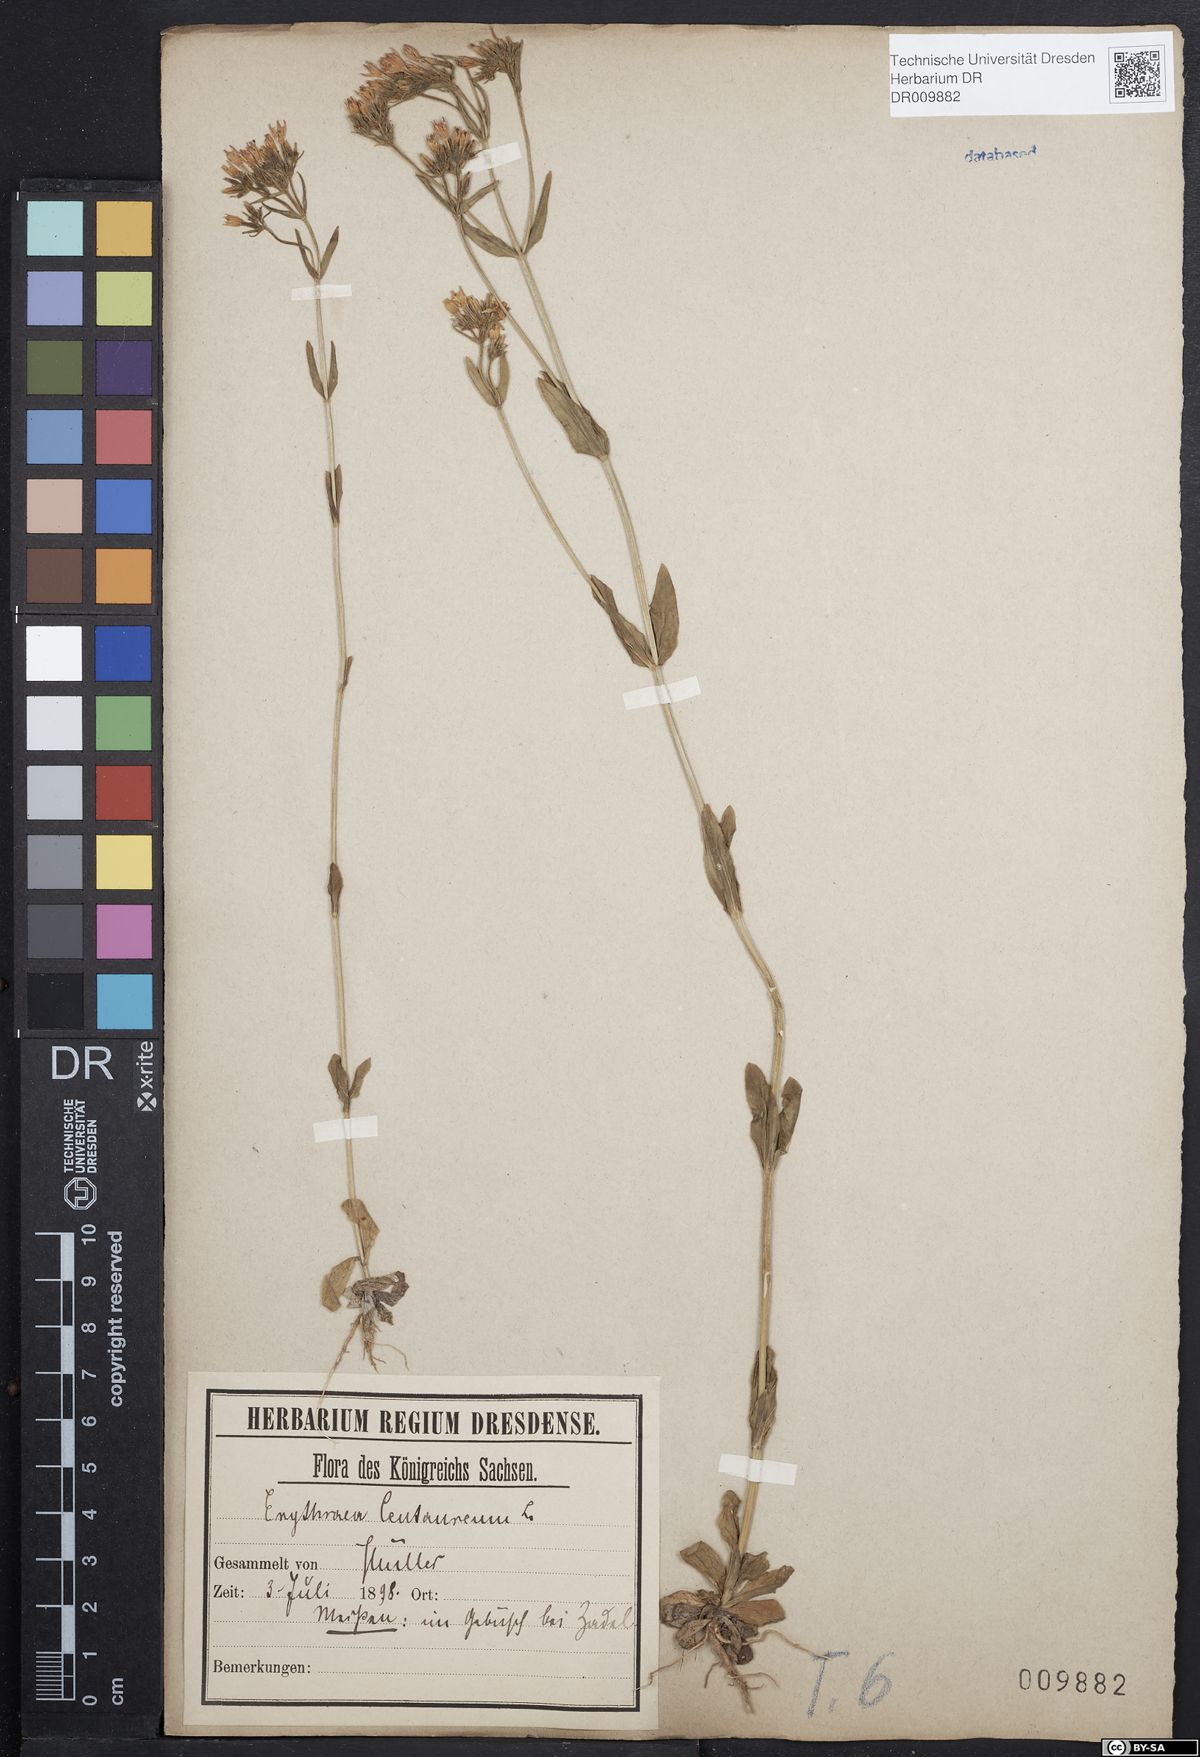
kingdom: Plantae
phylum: Tracheophyta
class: Magnoliopsida
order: Gentianales
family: Gentianaceae
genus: Centaurium
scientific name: Centaurium erythraea
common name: Common centaury
